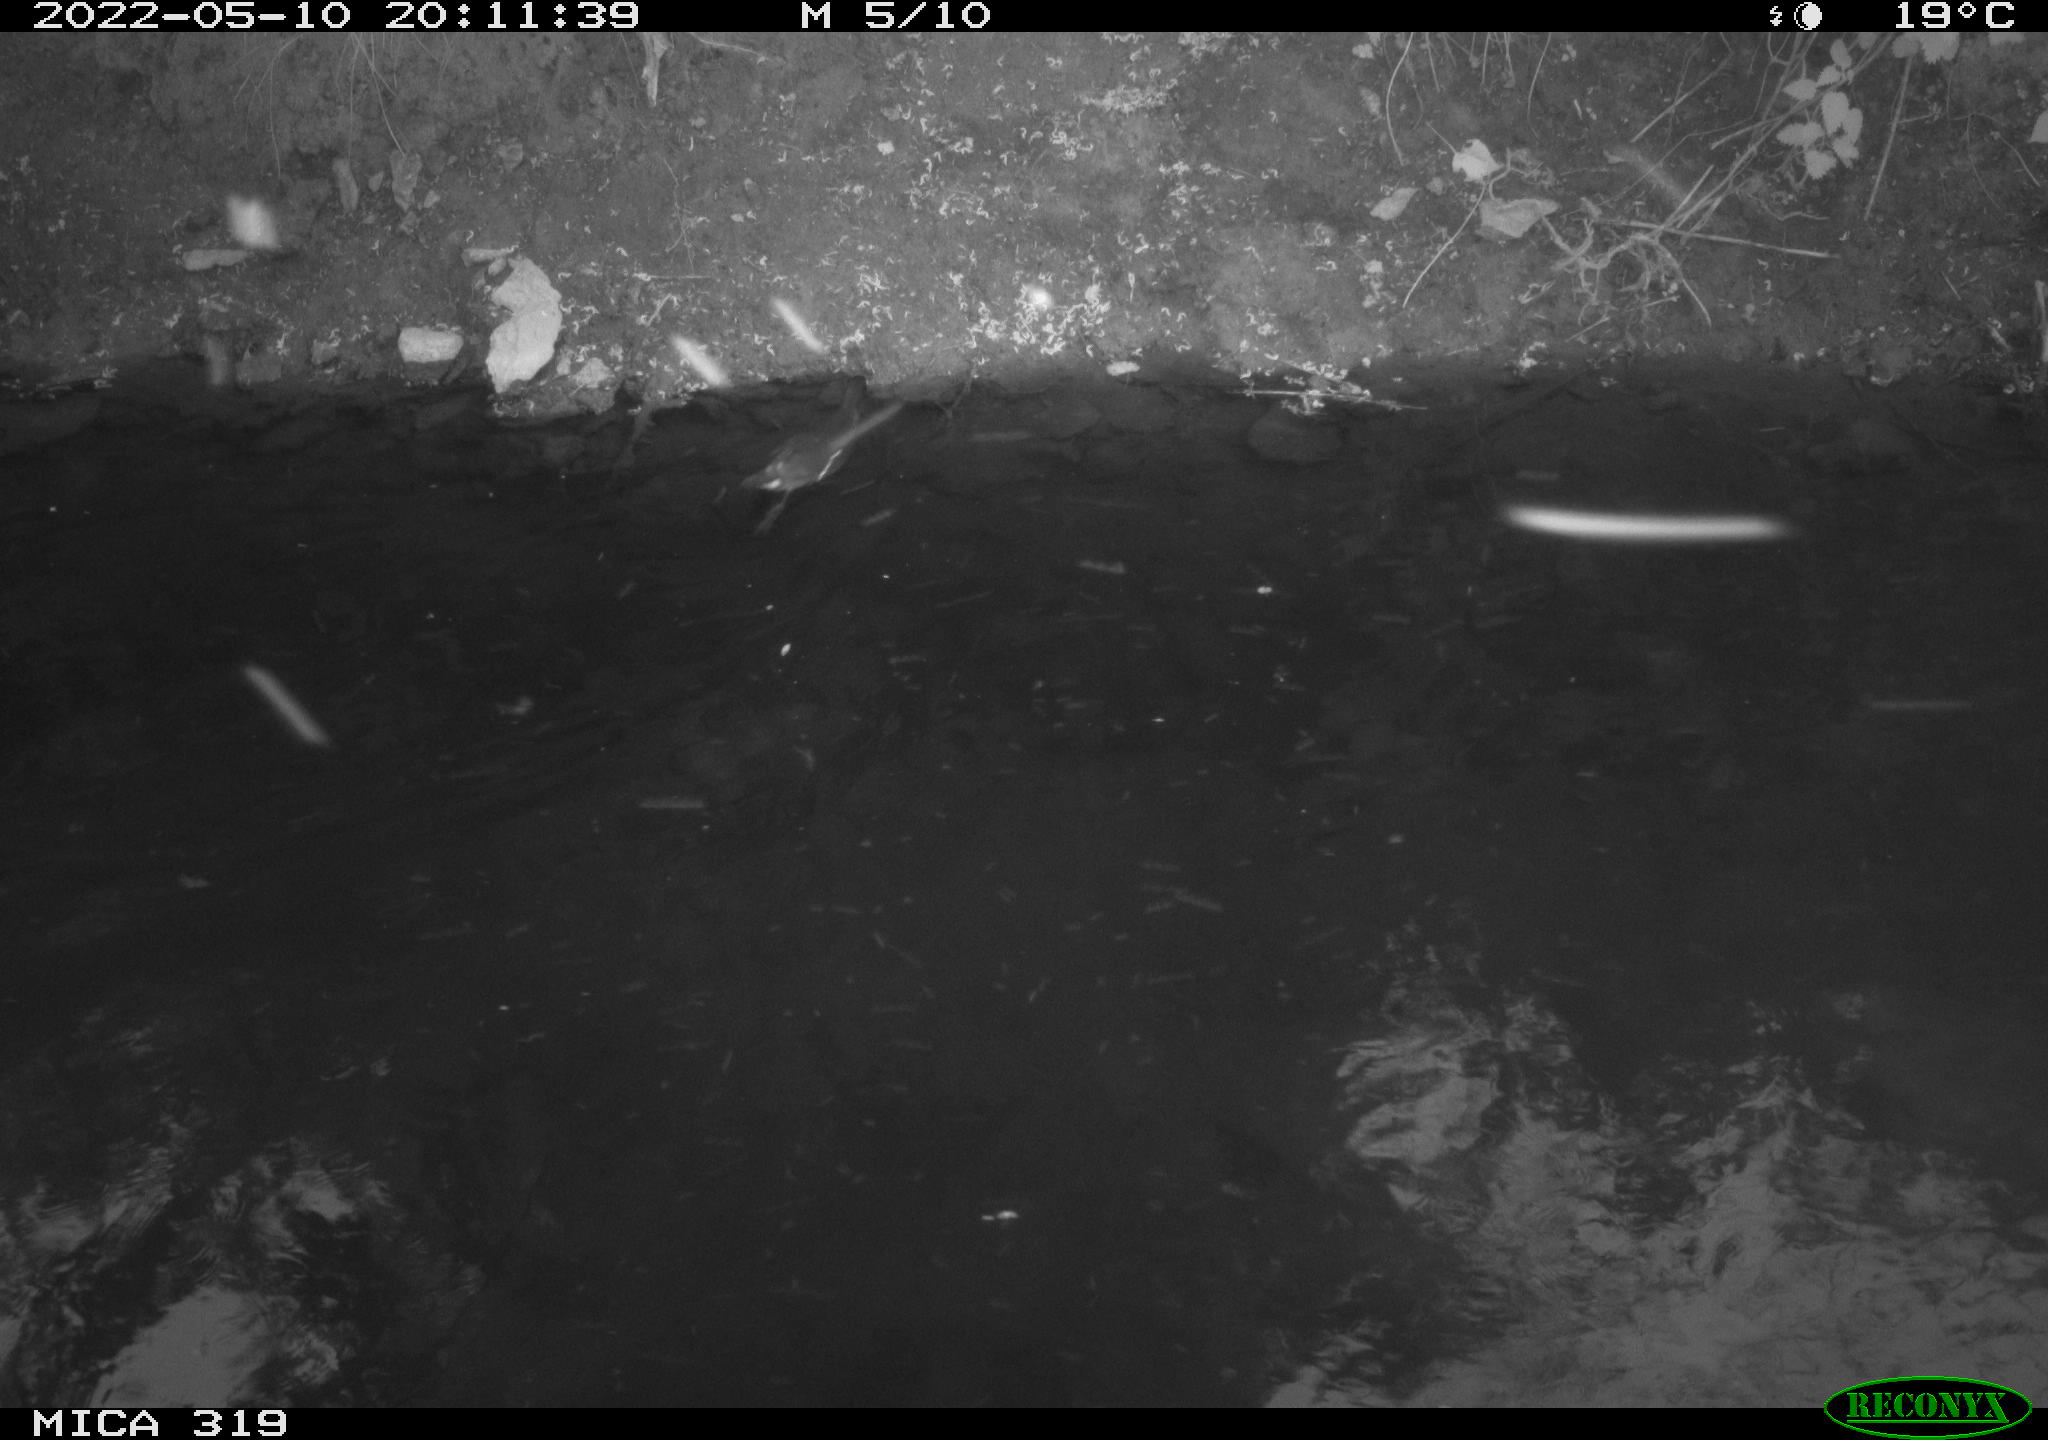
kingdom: Animalia
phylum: Chordata
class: Aves
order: Gruiformes
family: Rallidae
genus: Gallinula
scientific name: Gallinula chloropus
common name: Common moorhen
